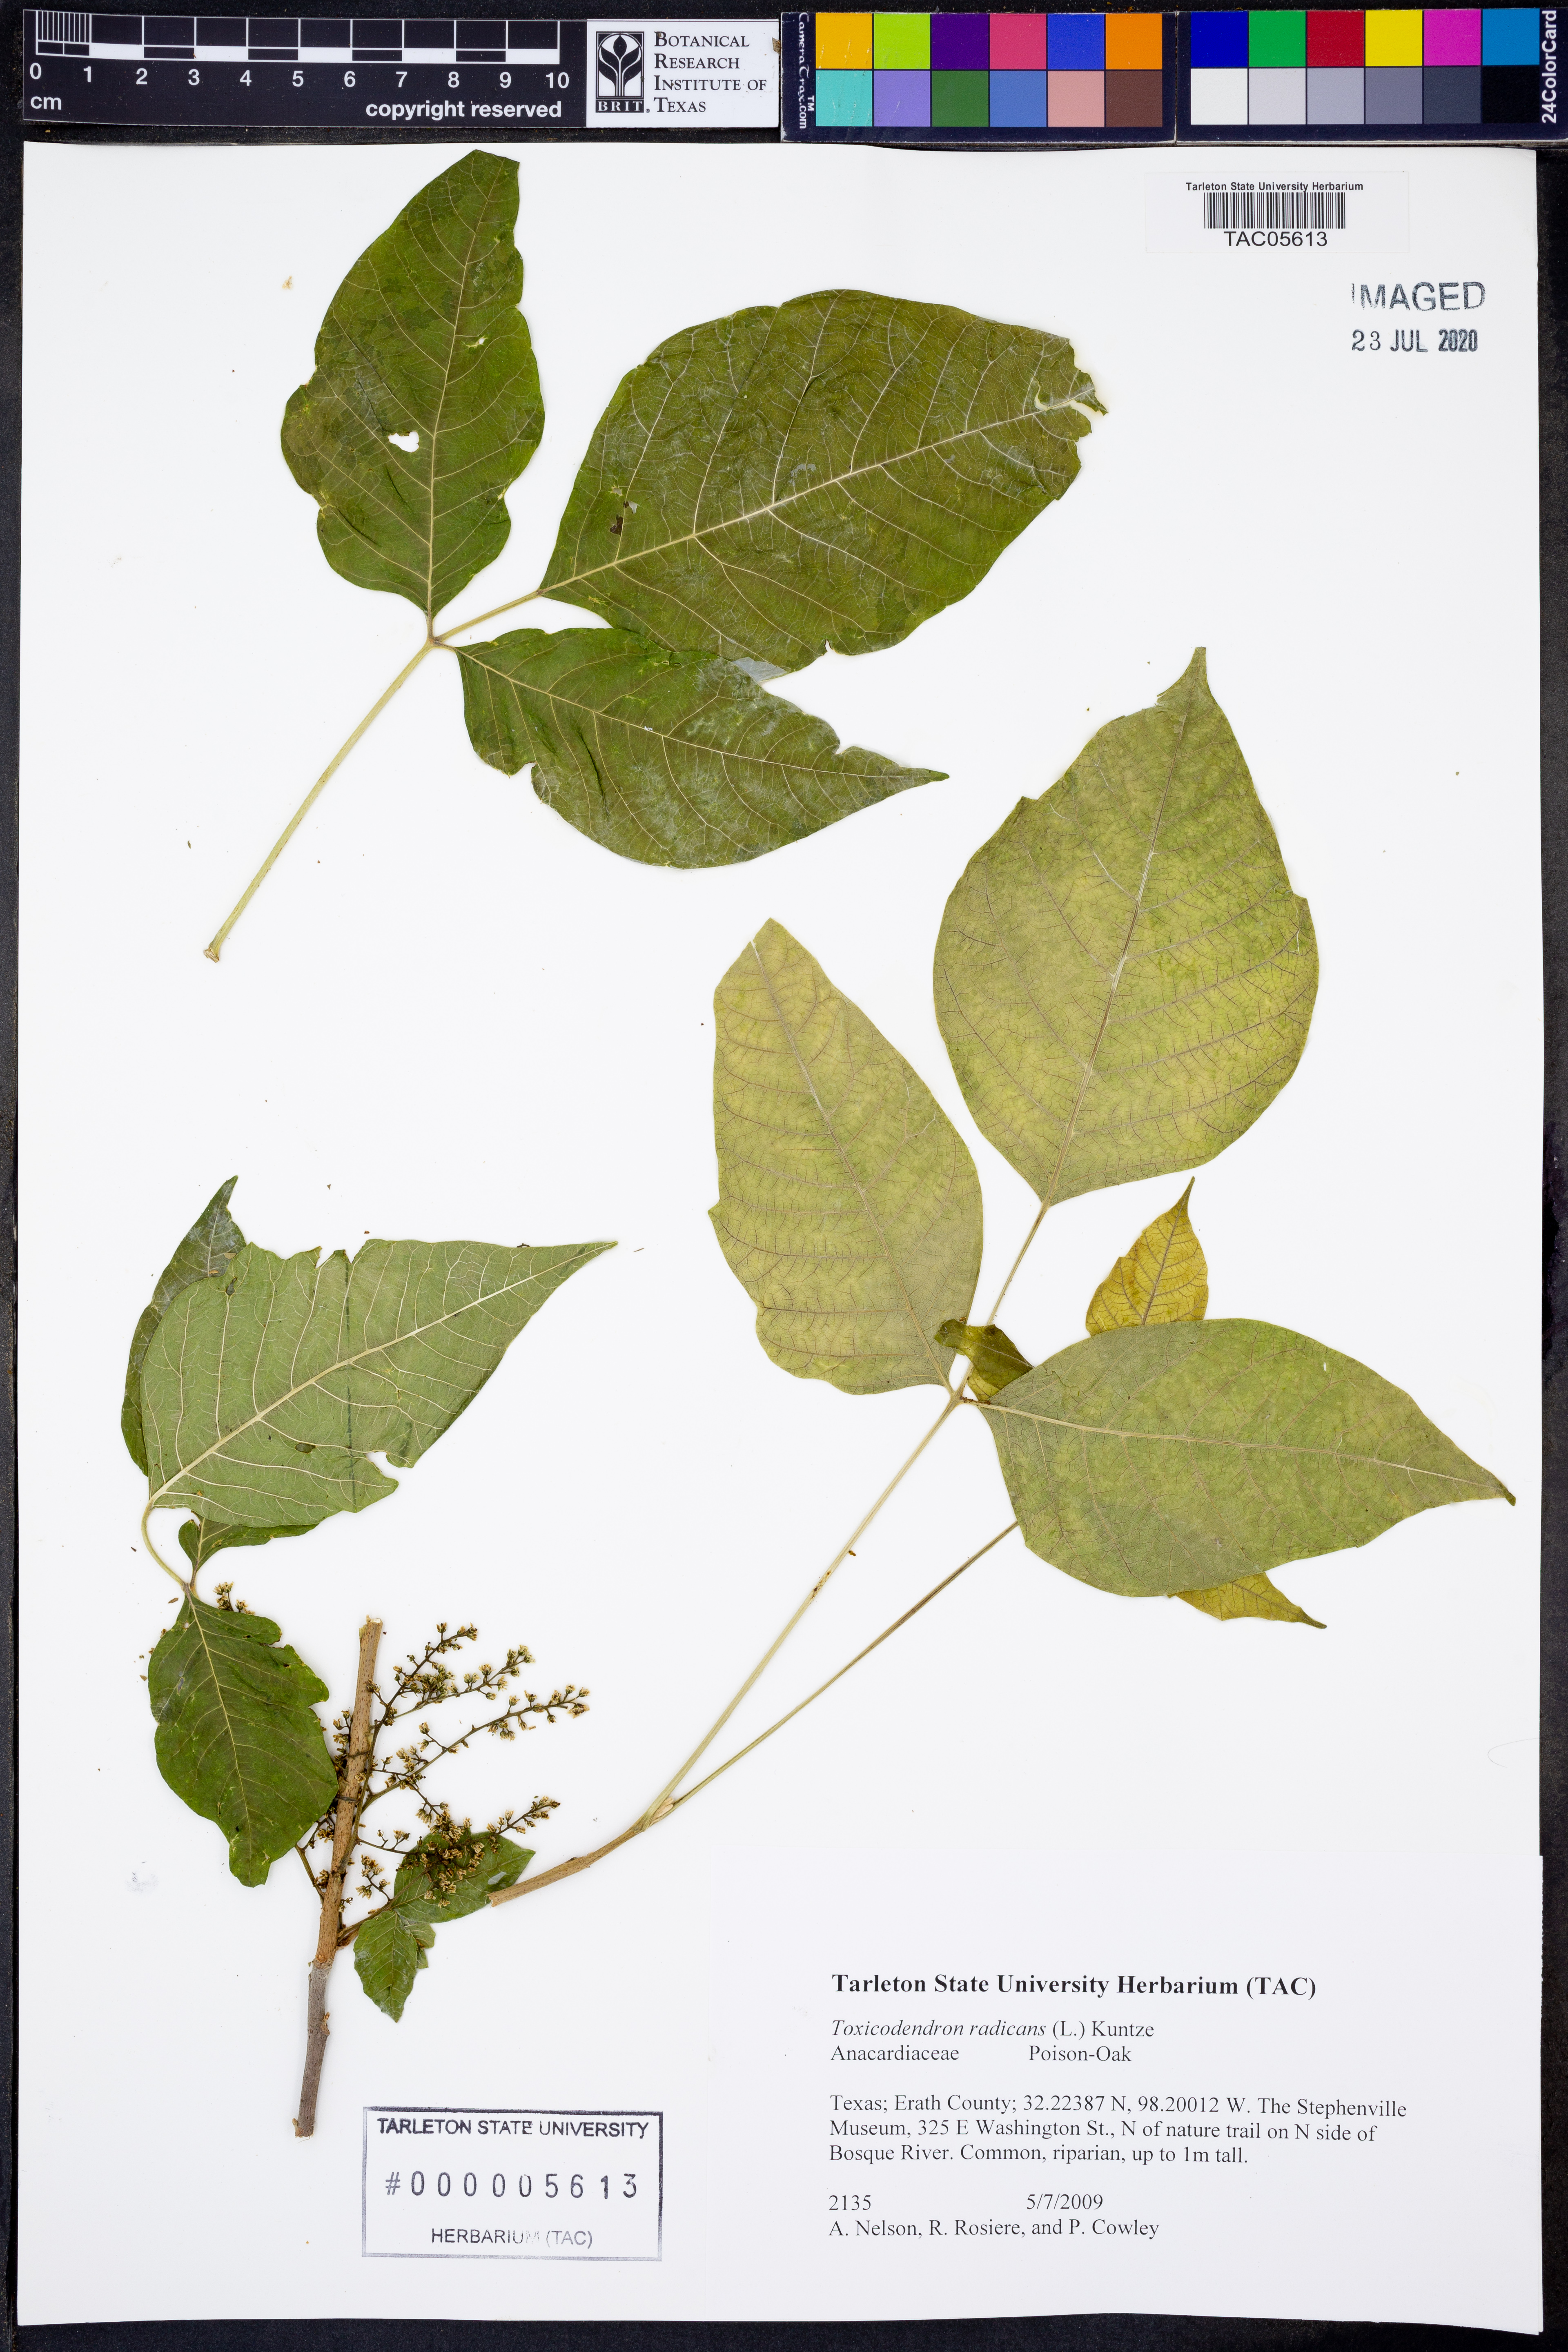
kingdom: Plantae
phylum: Tracheophyta
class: Magnoliopsida
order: Sapindales
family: Anacardiaceae
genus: Toxicodendron
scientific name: Toxicodendron radicans
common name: Poison ivy
